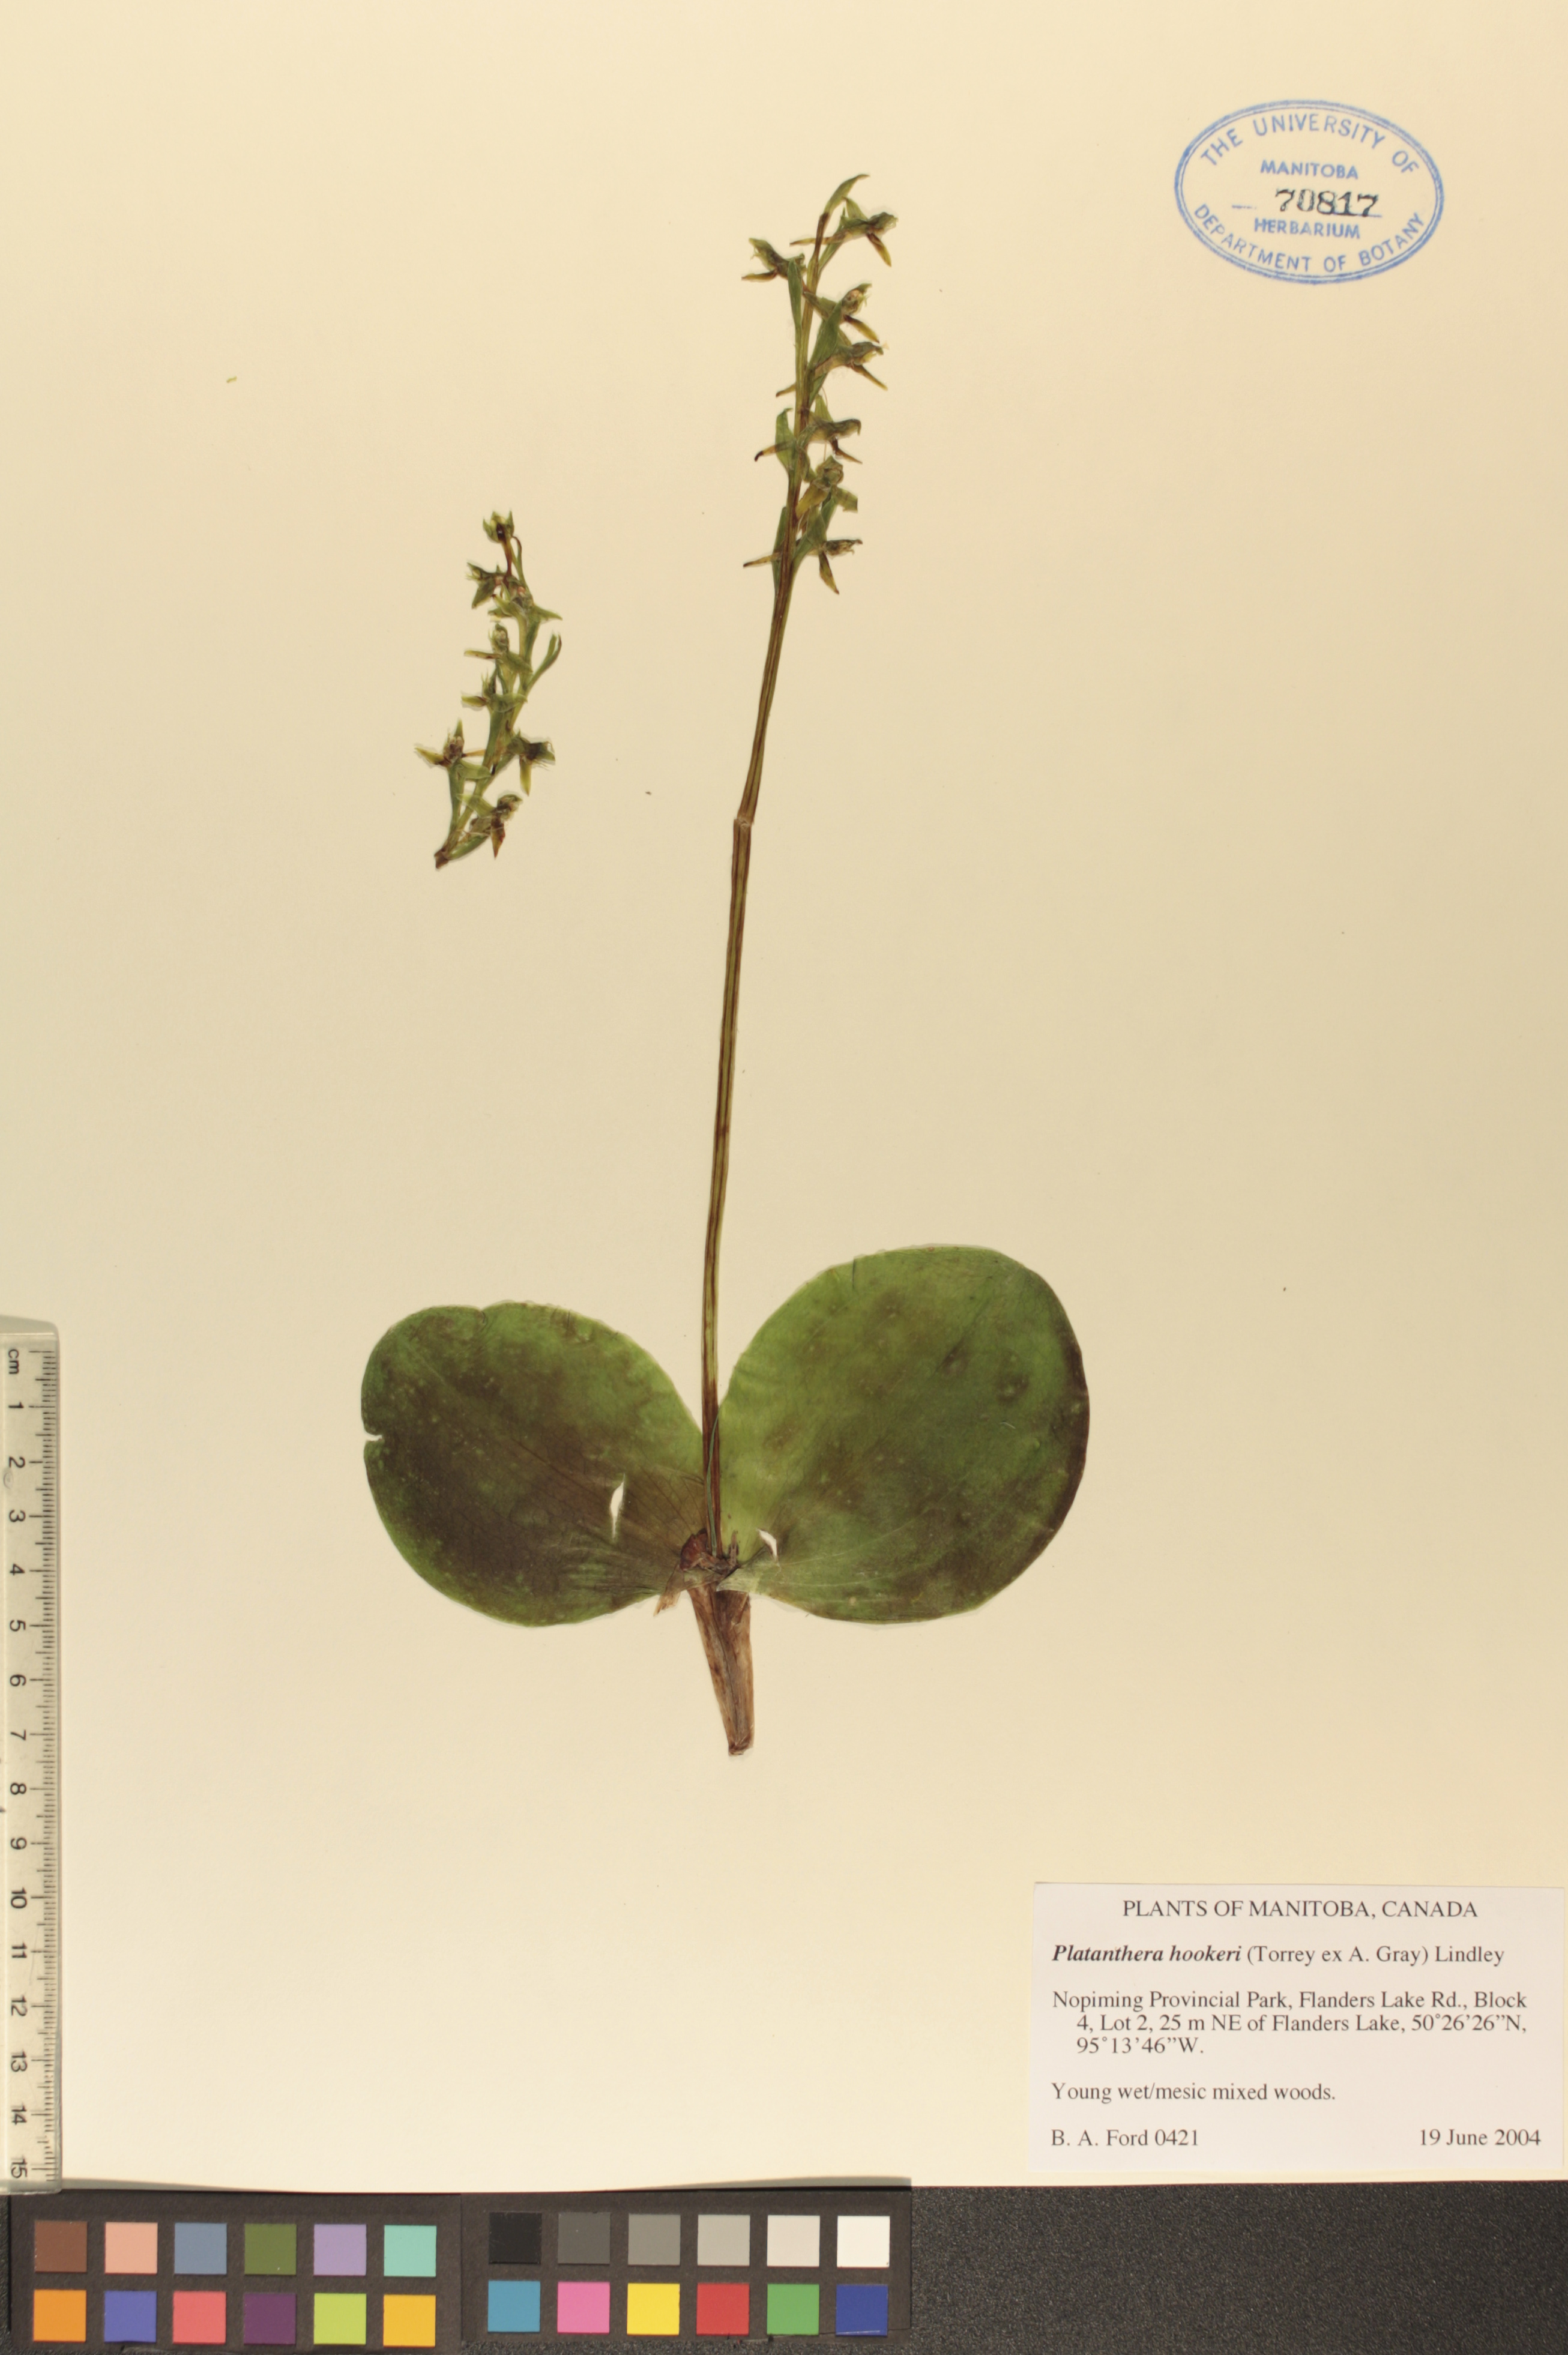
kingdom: Plantae
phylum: Tracheophyta
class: Liliopsida
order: Asparagales
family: Orchidaceae
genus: Platanthera
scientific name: Platanthera hookeri
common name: Hooker's orchid
